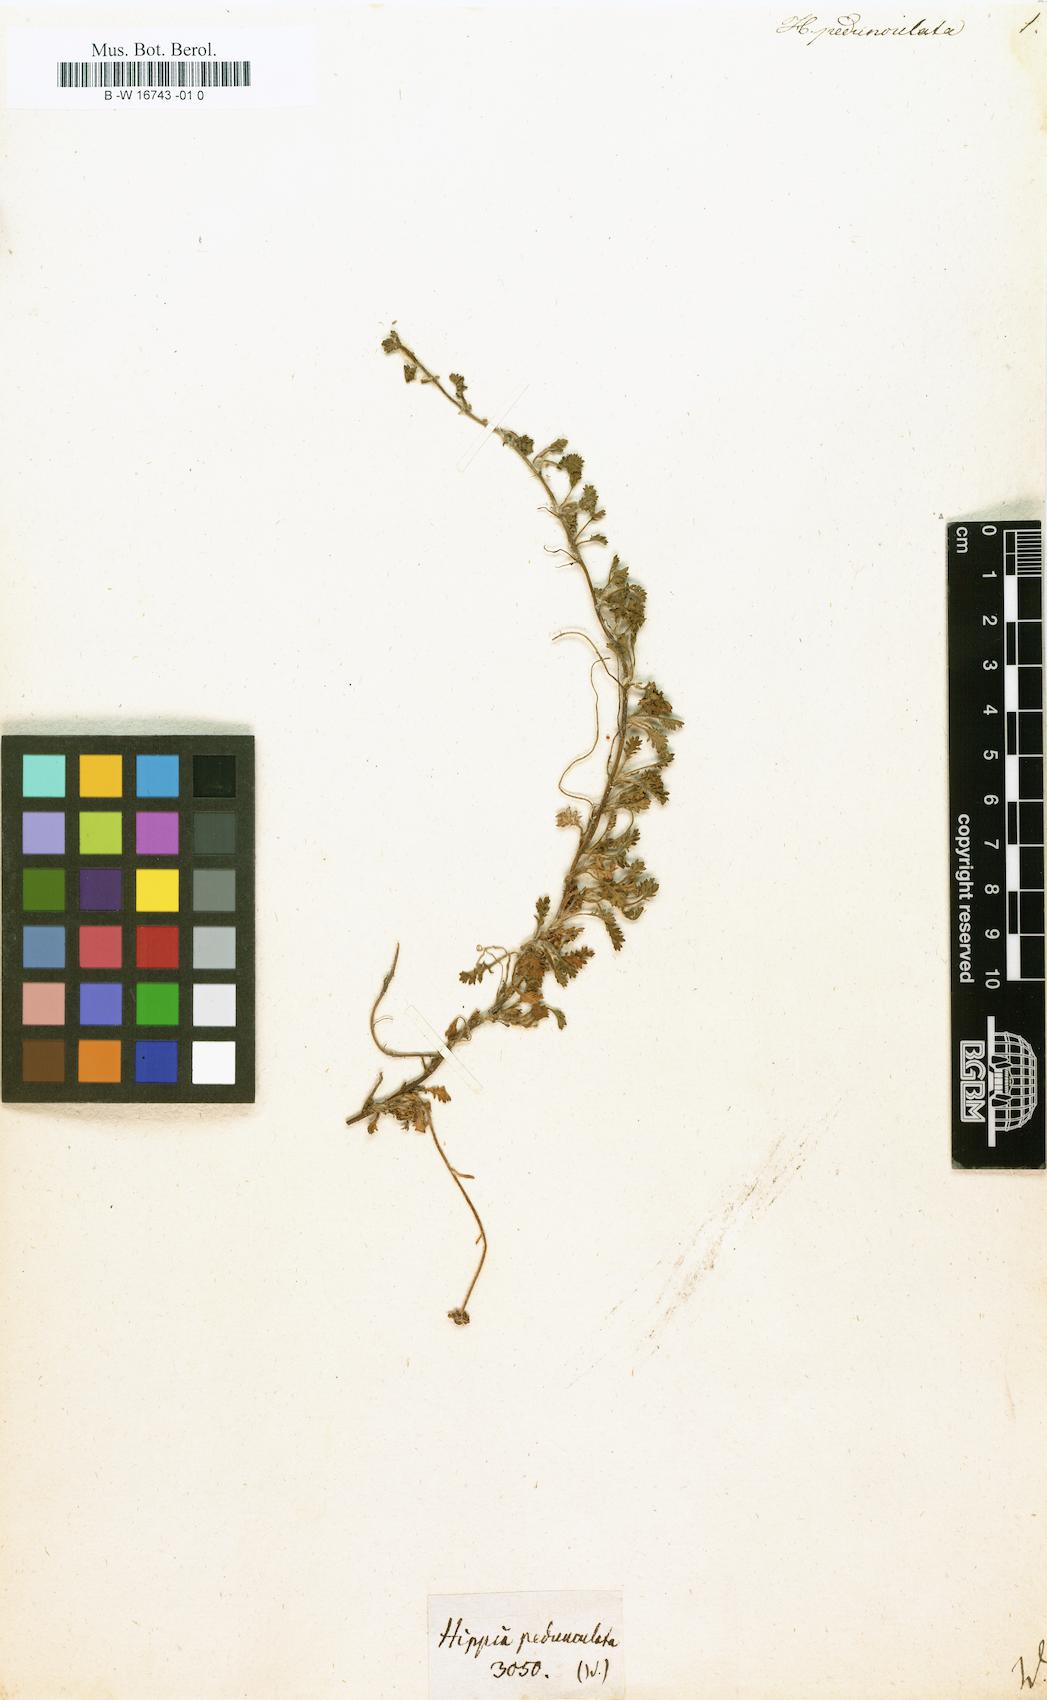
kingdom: Plantae
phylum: Tracheophyta
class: Magnoliopsida
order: Asterales
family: Asteraceae
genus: Hippia
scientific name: Hippia
